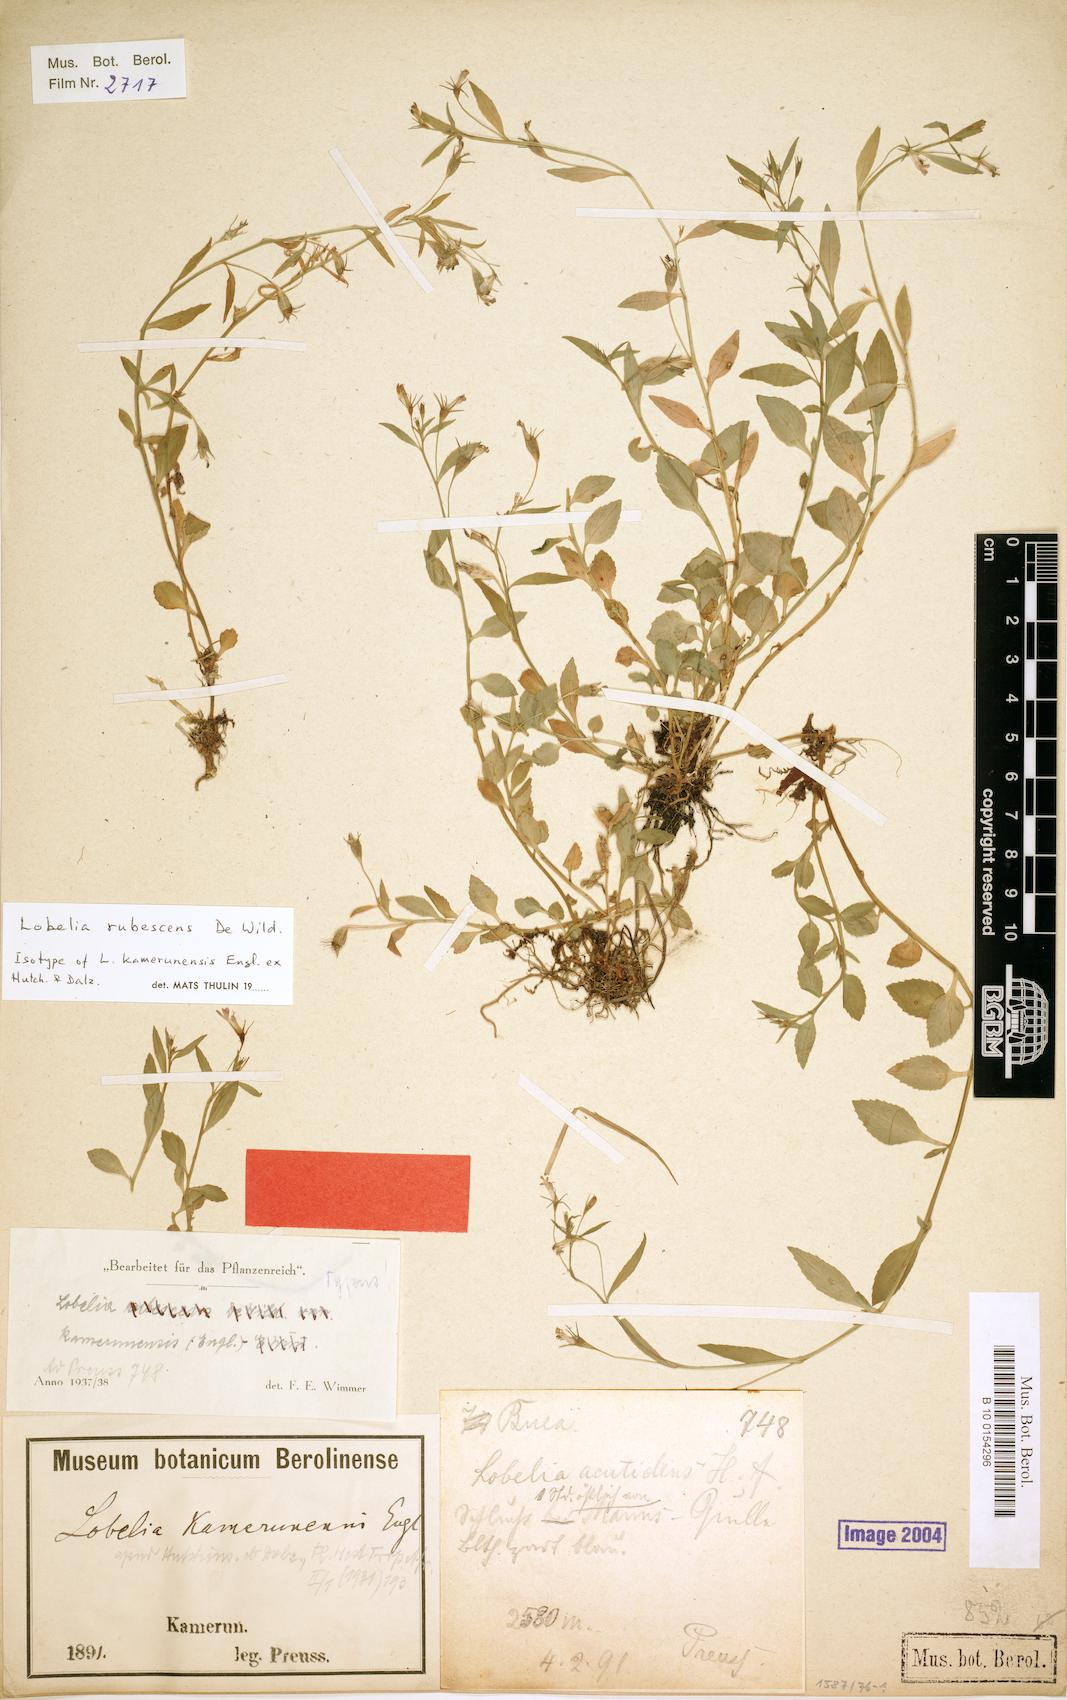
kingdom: Plantae
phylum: Tracheophyta
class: Magnoliopsida
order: Asterales
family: Campanulaceae
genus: Lobelia
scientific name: Lobelia rubescens
